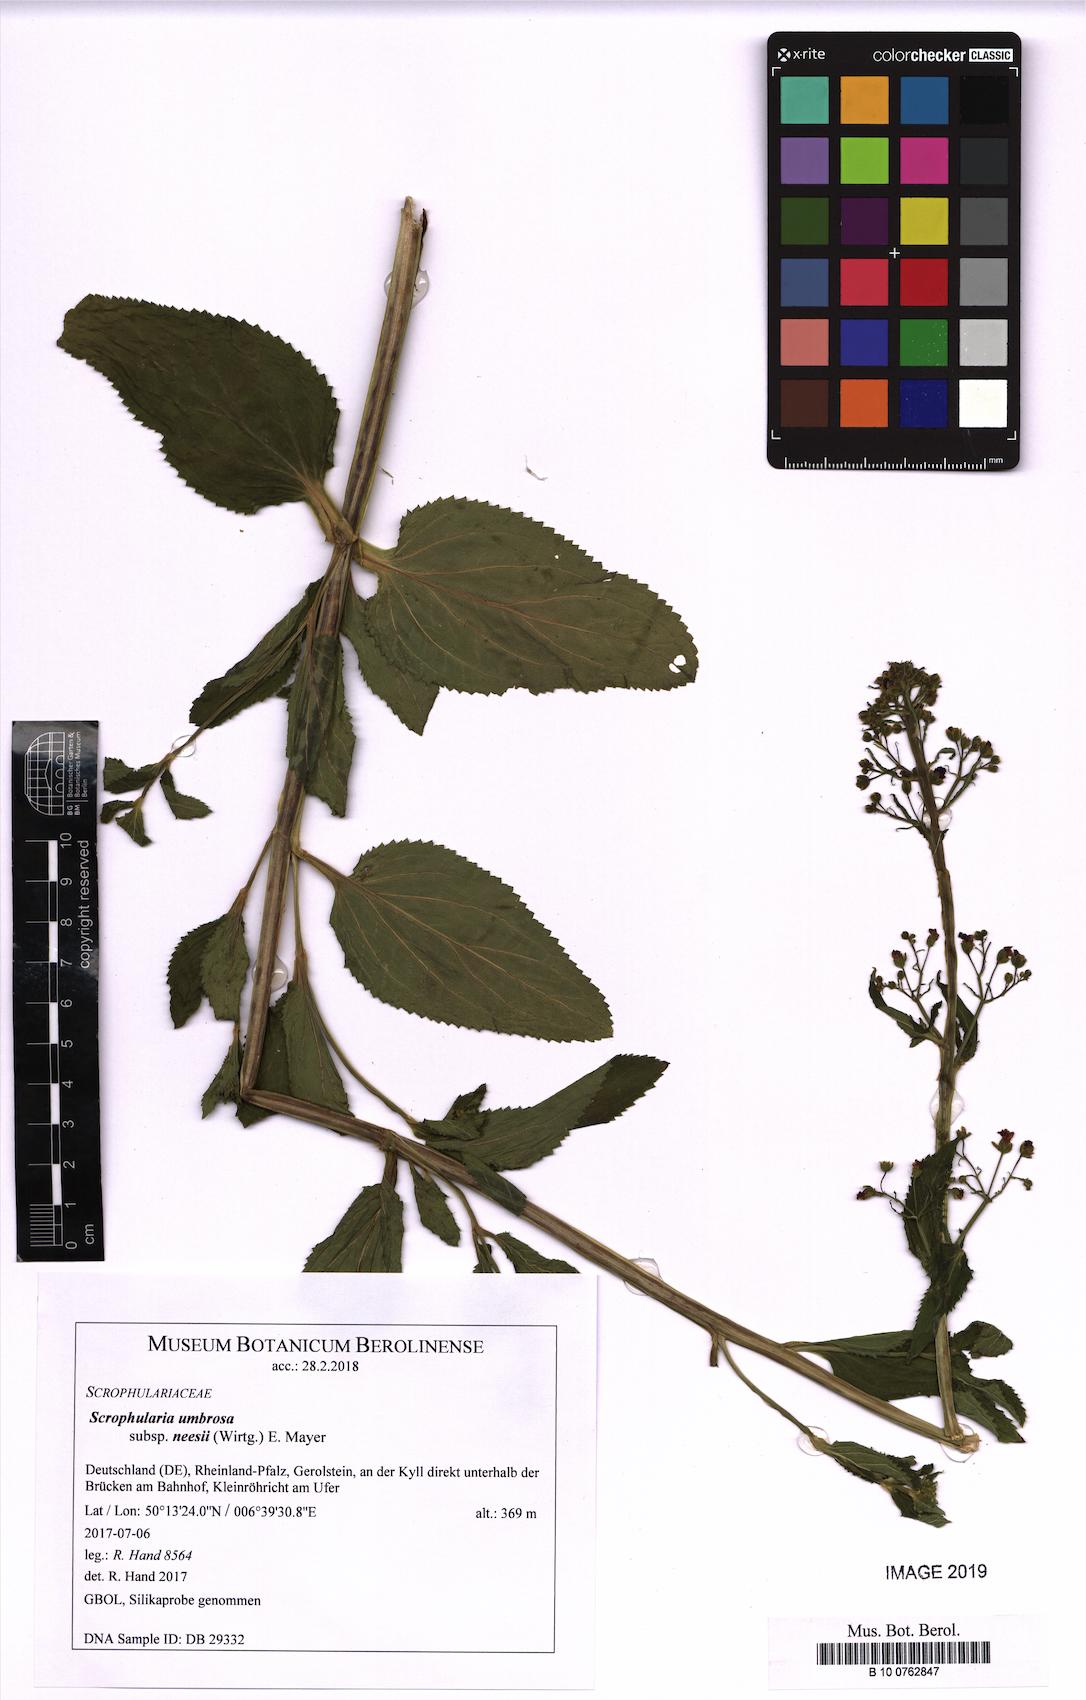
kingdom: Plantae
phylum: Tracheophyta
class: Magnoliopsida
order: Lamiales
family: Scrophulariaceae
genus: Scrophularia
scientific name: Scrophularia neesii
